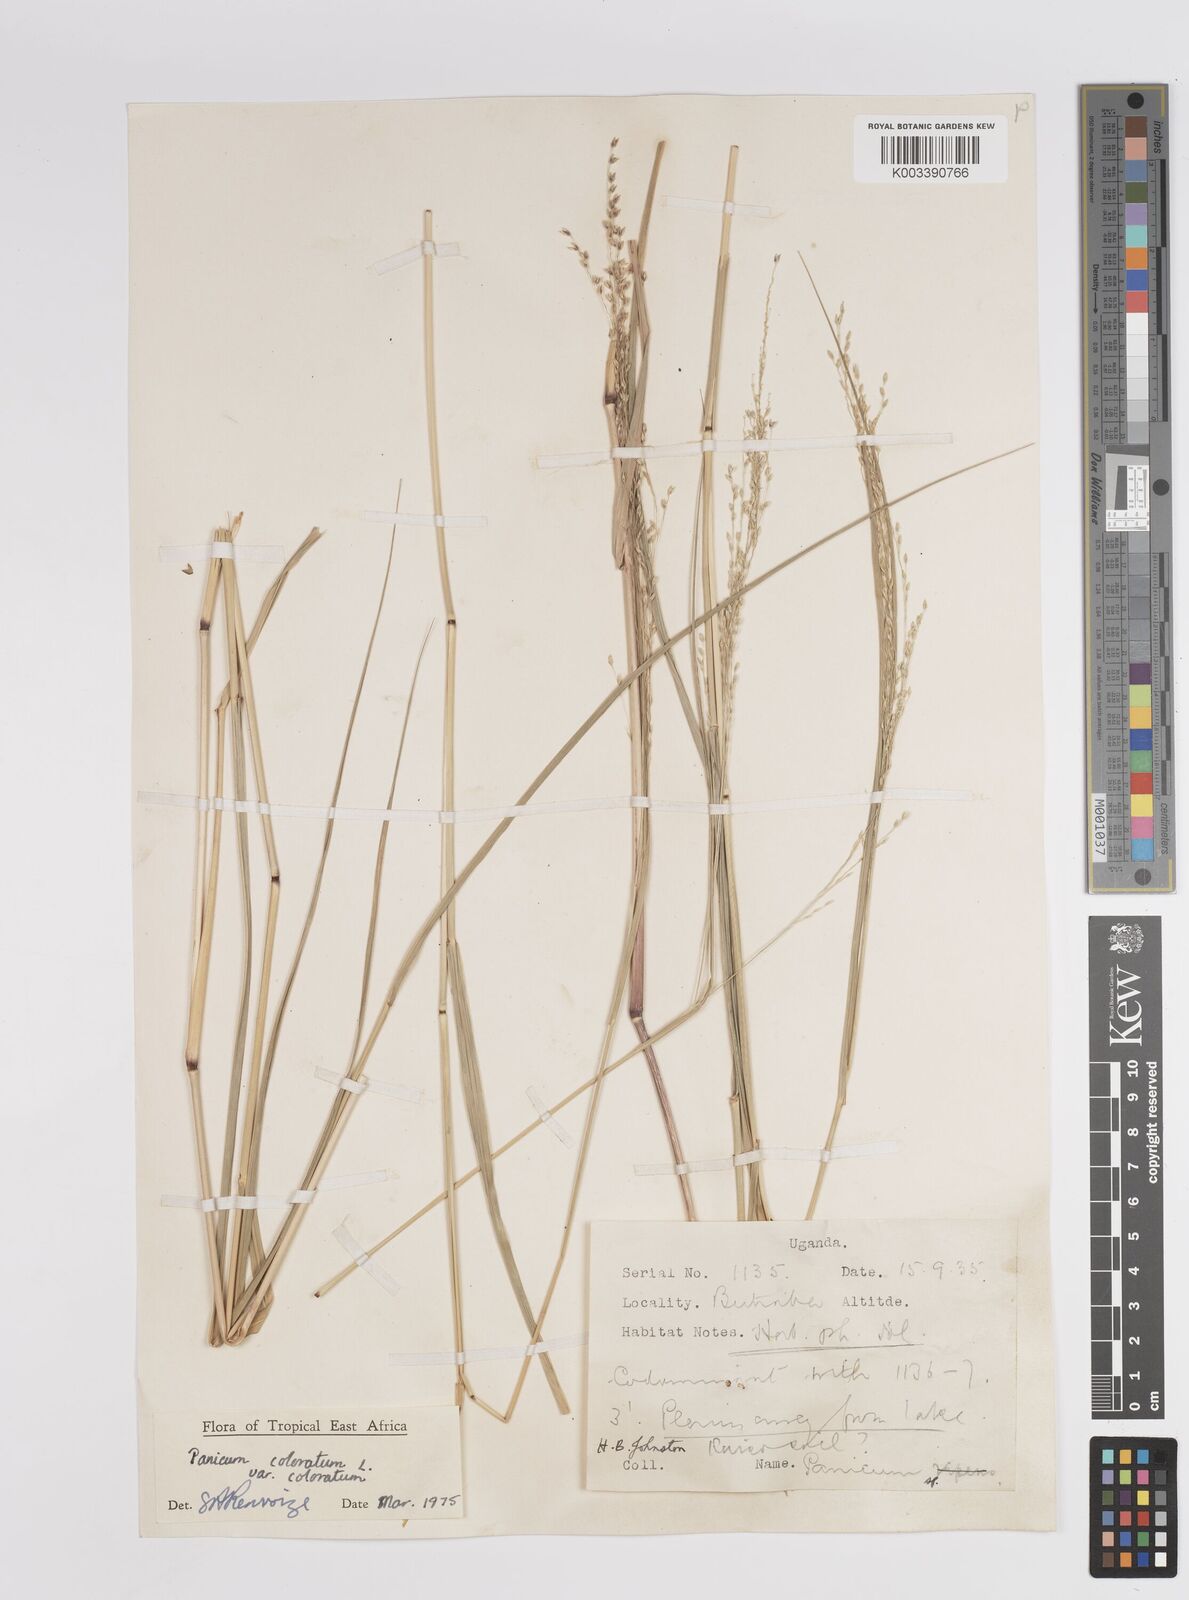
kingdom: Plantae
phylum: Tracheophyta
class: Liliopsida
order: Poales
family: Poaceae
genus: Panicum
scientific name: Panicum coloratum
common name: Kleingrass
